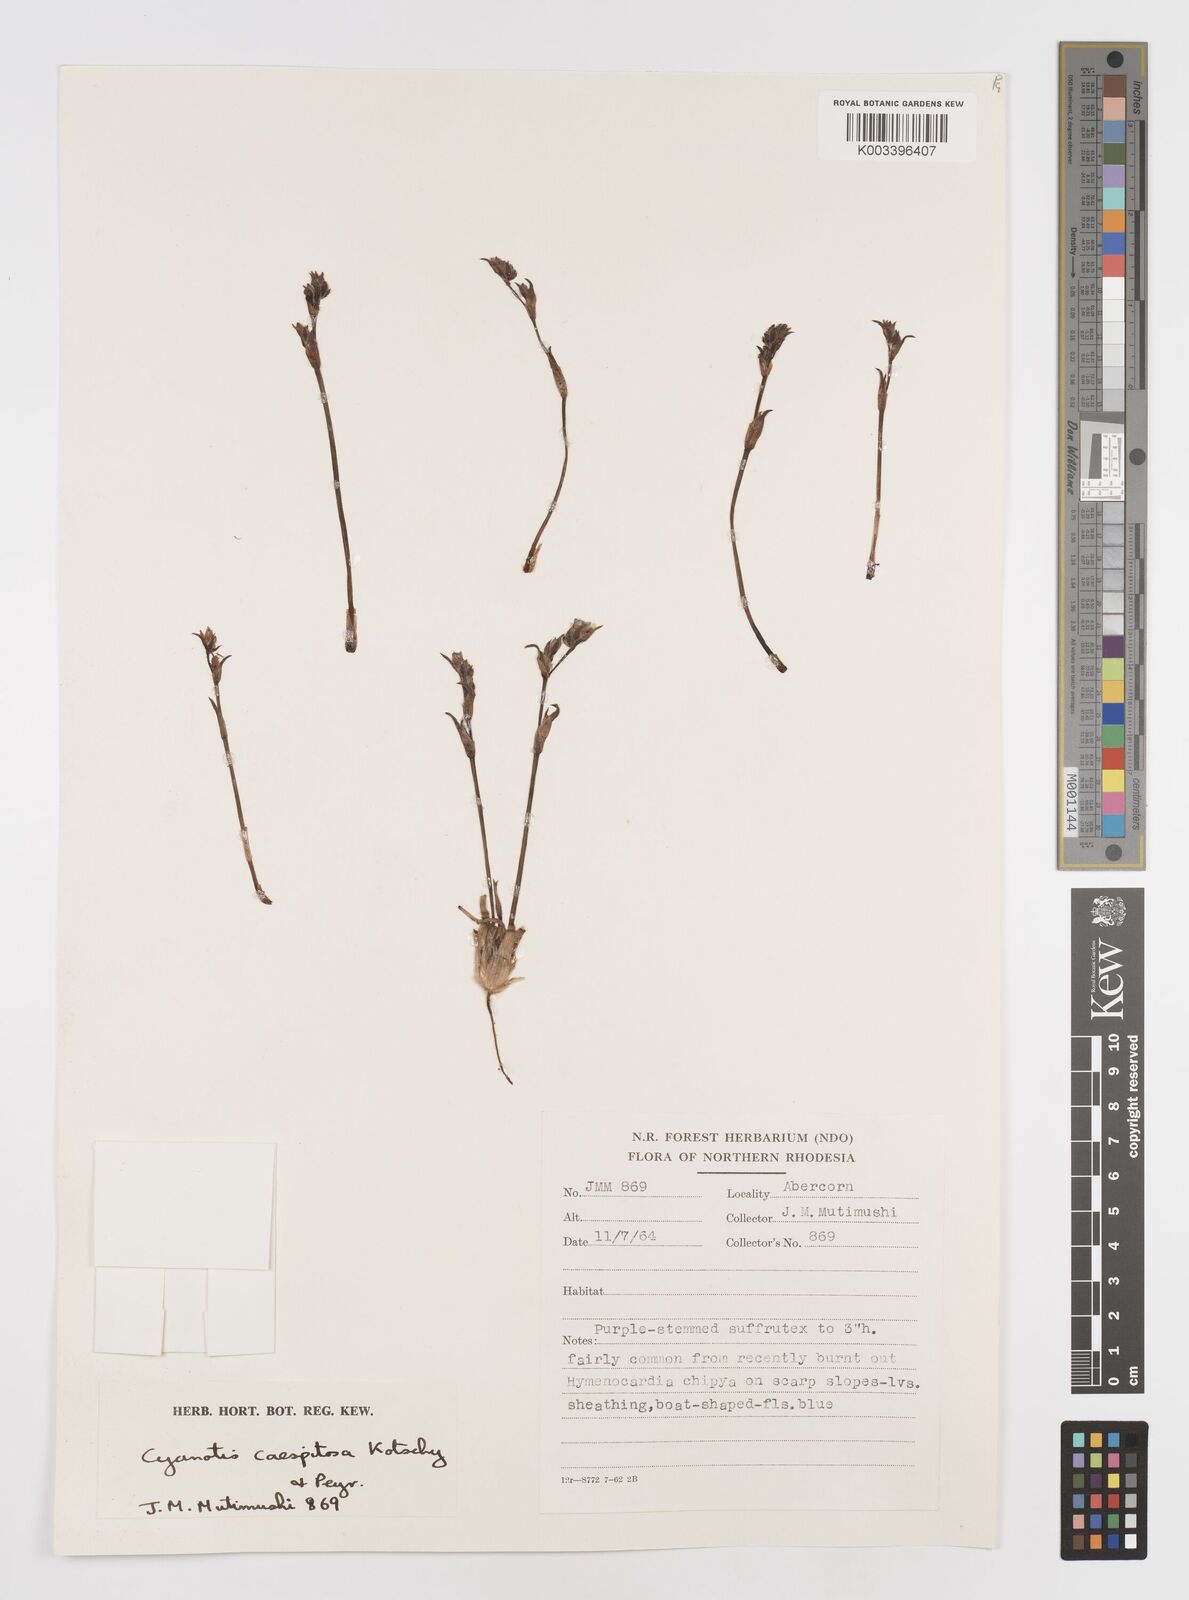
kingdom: Plantae
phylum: Tracheophyta
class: Liliopsida
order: Commelinales
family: Commelinaceae
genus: Cyanotis
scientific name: Cyanotis caespitosa
